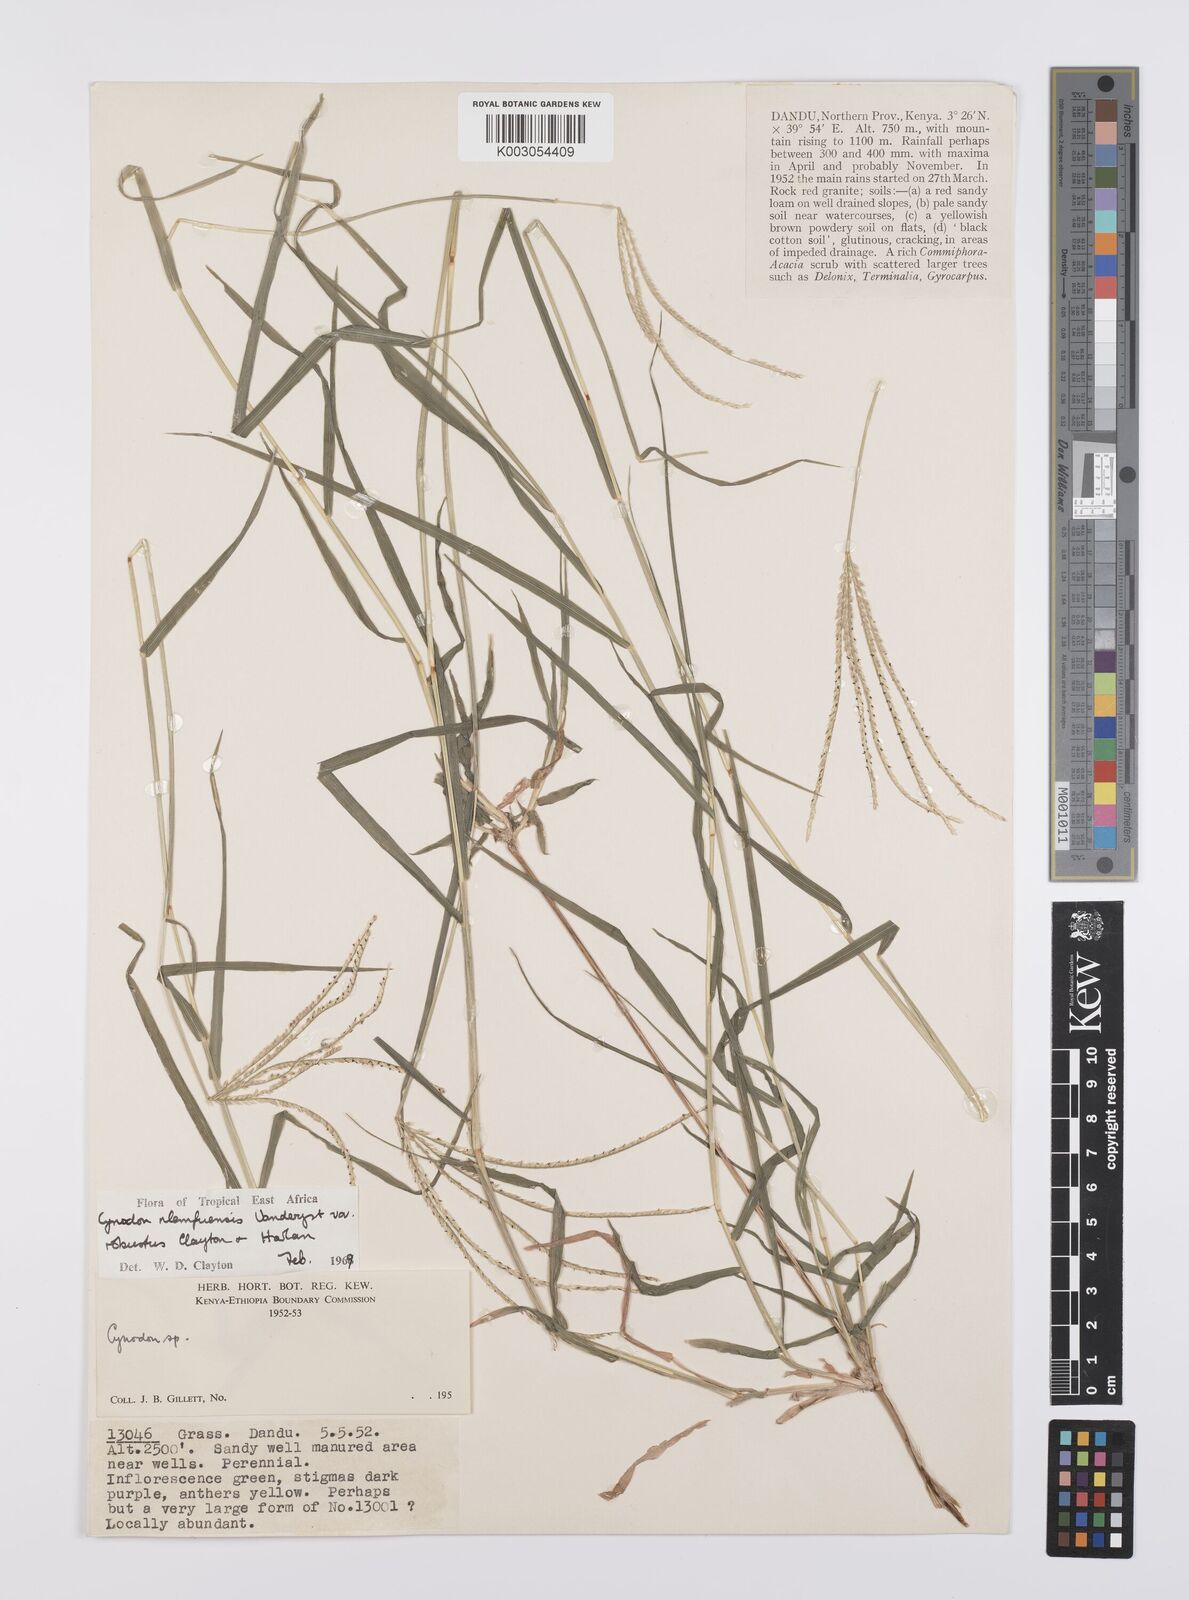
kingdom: Plantae
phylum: Tracheophyta
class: Liliopsida
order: Poales
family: Poaceae
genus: Cynodon
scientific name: Cynodon nlemfuensis
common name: African bermudagrass
